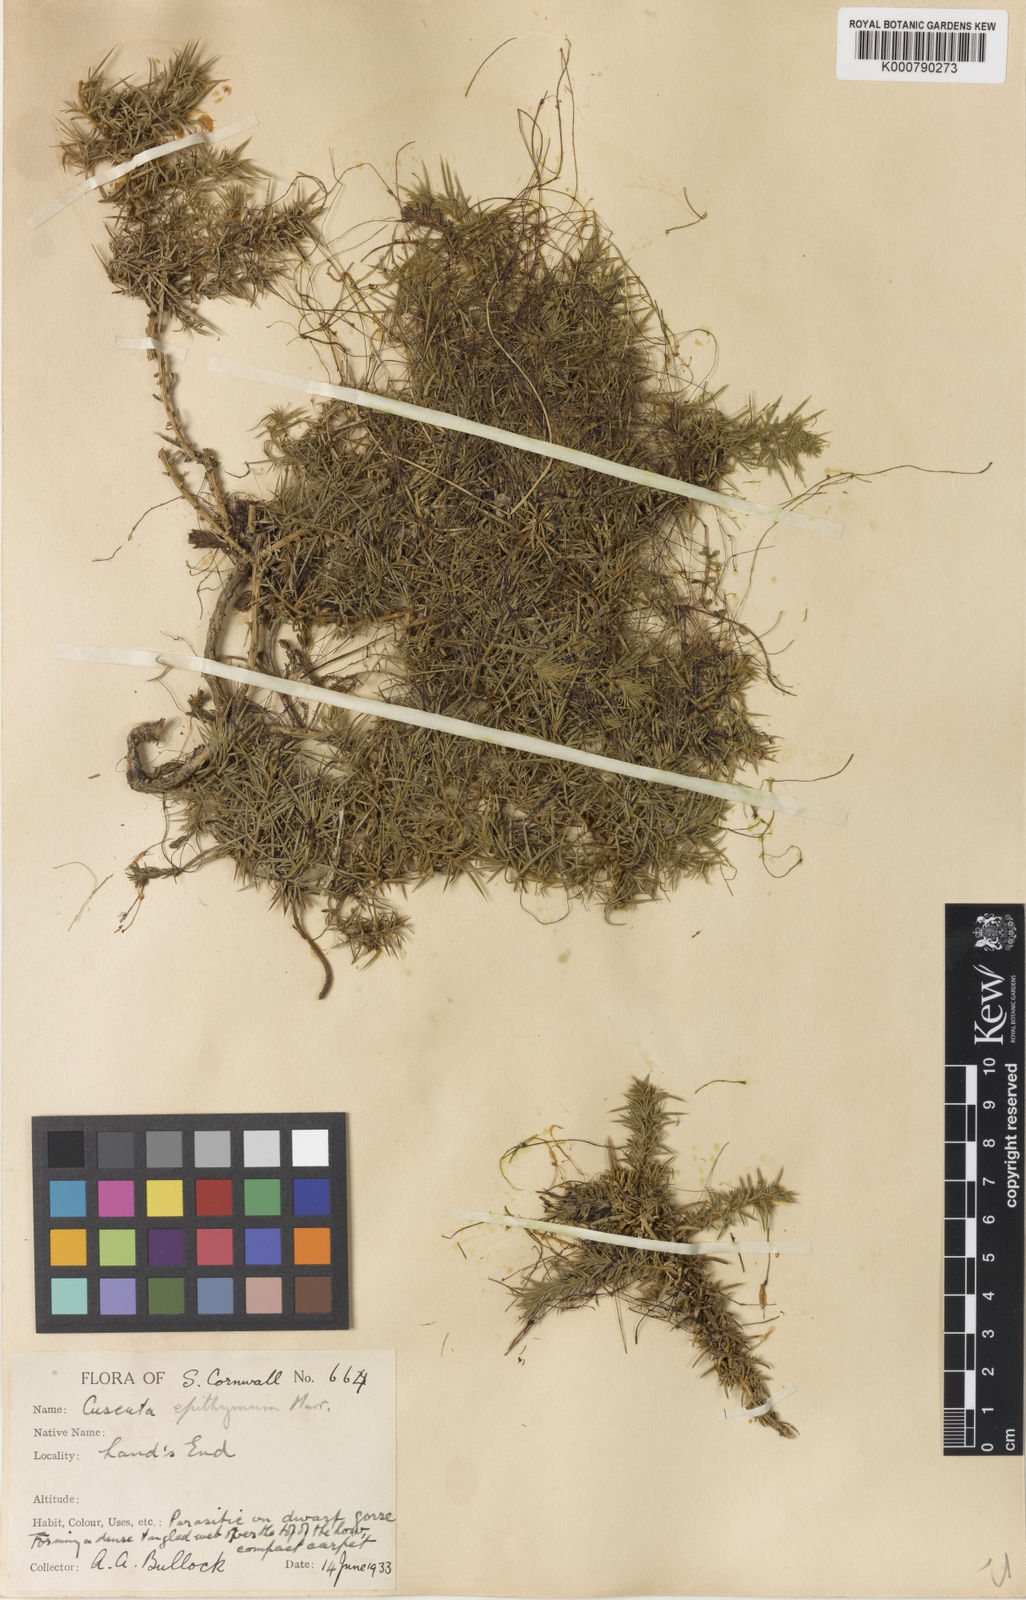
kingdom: Plantae
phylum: Tracheophyta
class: Magnoliopsida
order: Solanales
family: Convolvulaceae
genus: Cuscuta
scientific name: Cuscuta epithymum
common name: Clover dodder
